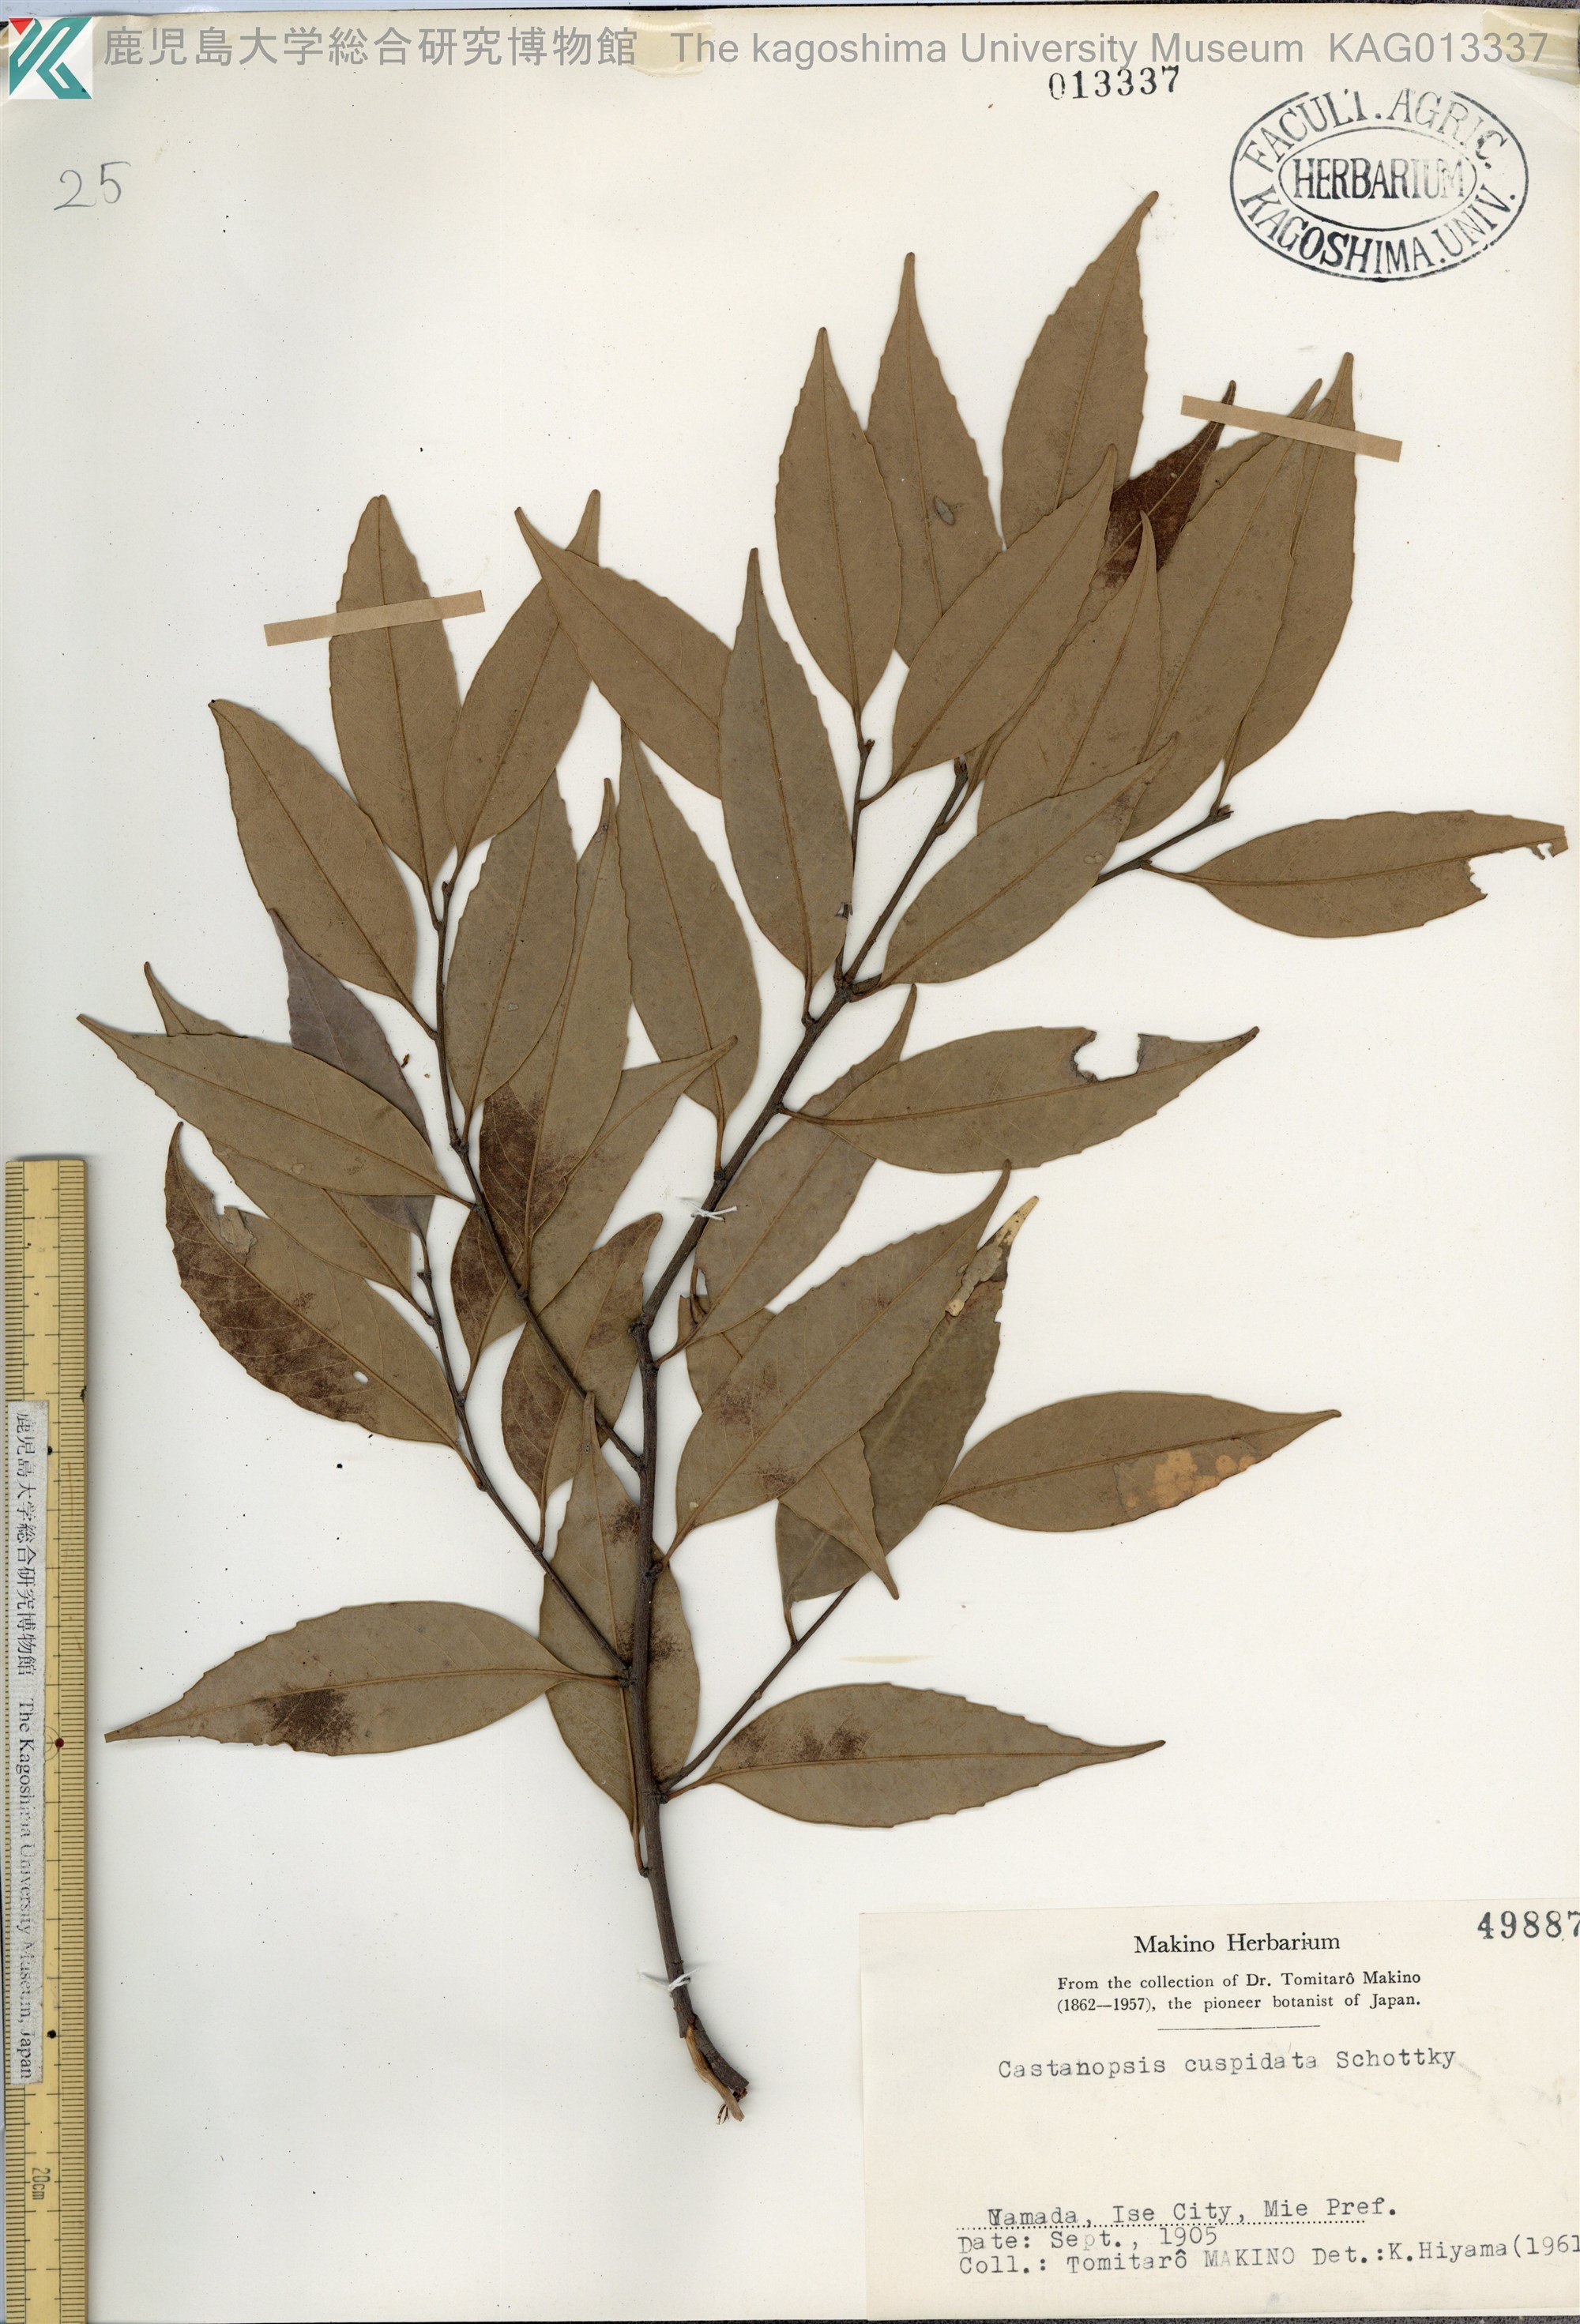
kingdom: Plantae
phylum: Tracheophyta
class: Magnoliopsida
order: Fagales
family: Fagaceae
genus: Castanopsis
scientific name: Castanopsis cuspidata
